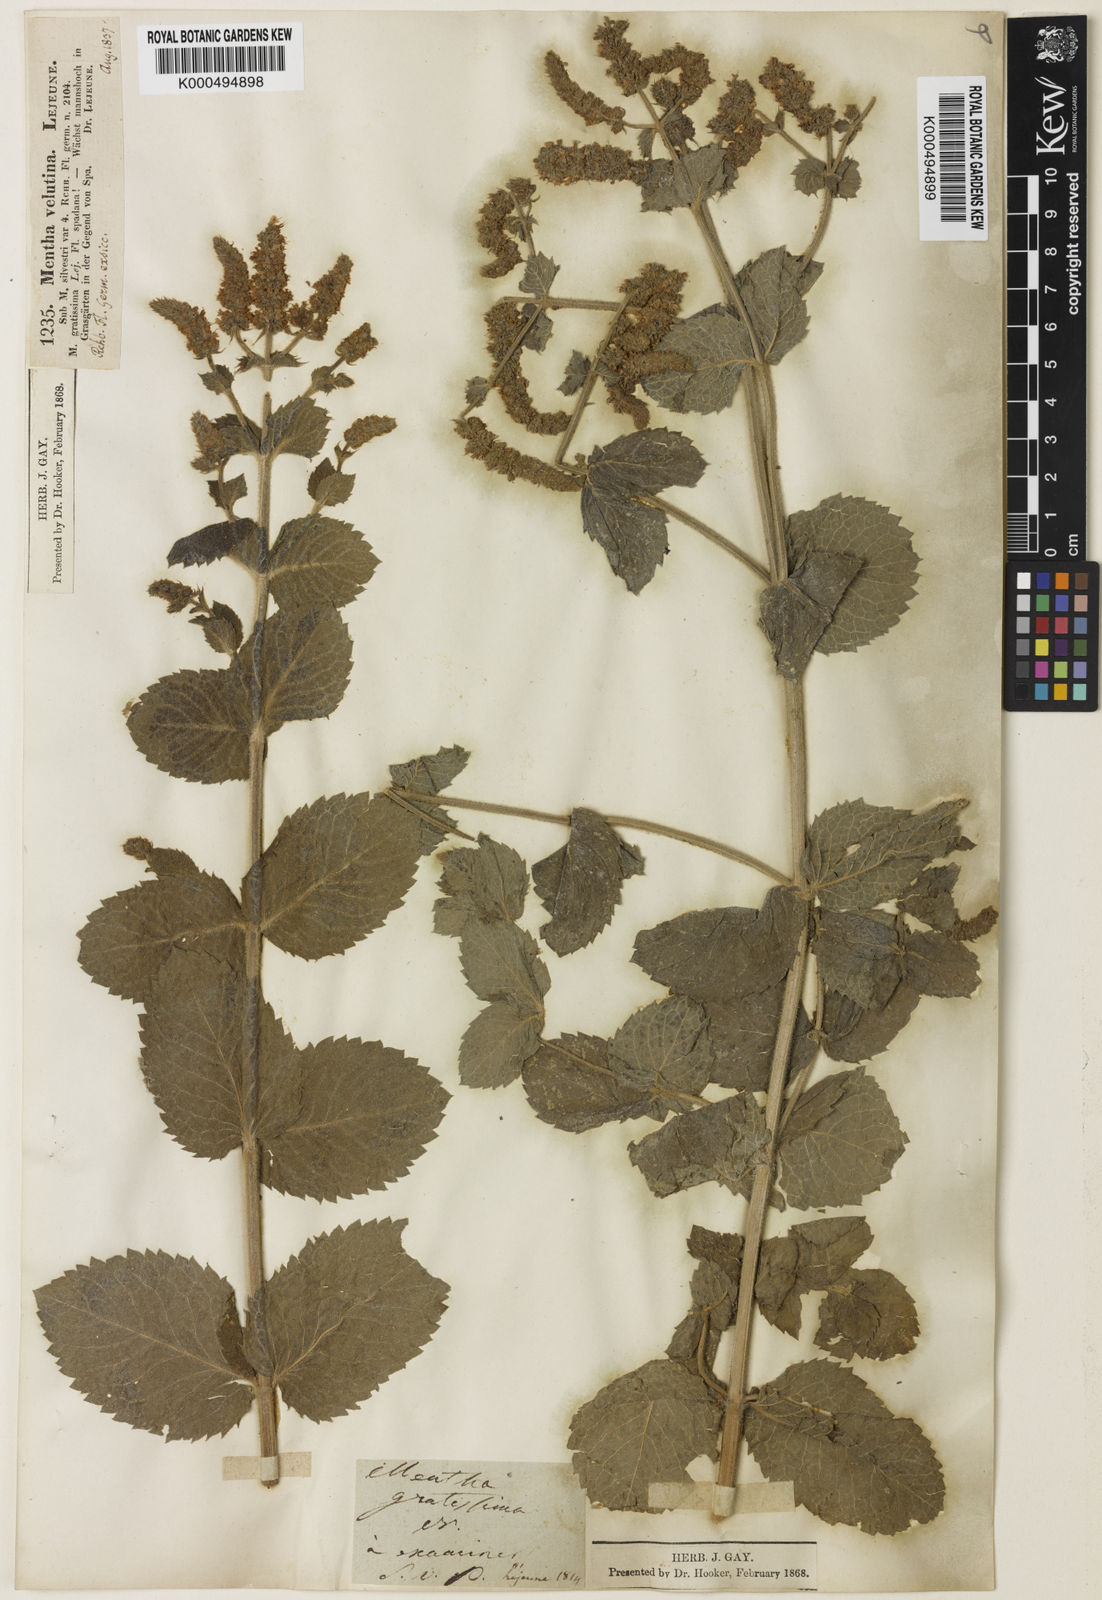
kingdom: Plantae
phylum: Tracheophyta
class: Magnoliopsida
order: Lamiales
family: Lamiaceae
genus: Mentha
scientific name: Mentha villosa
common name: Apple mint
